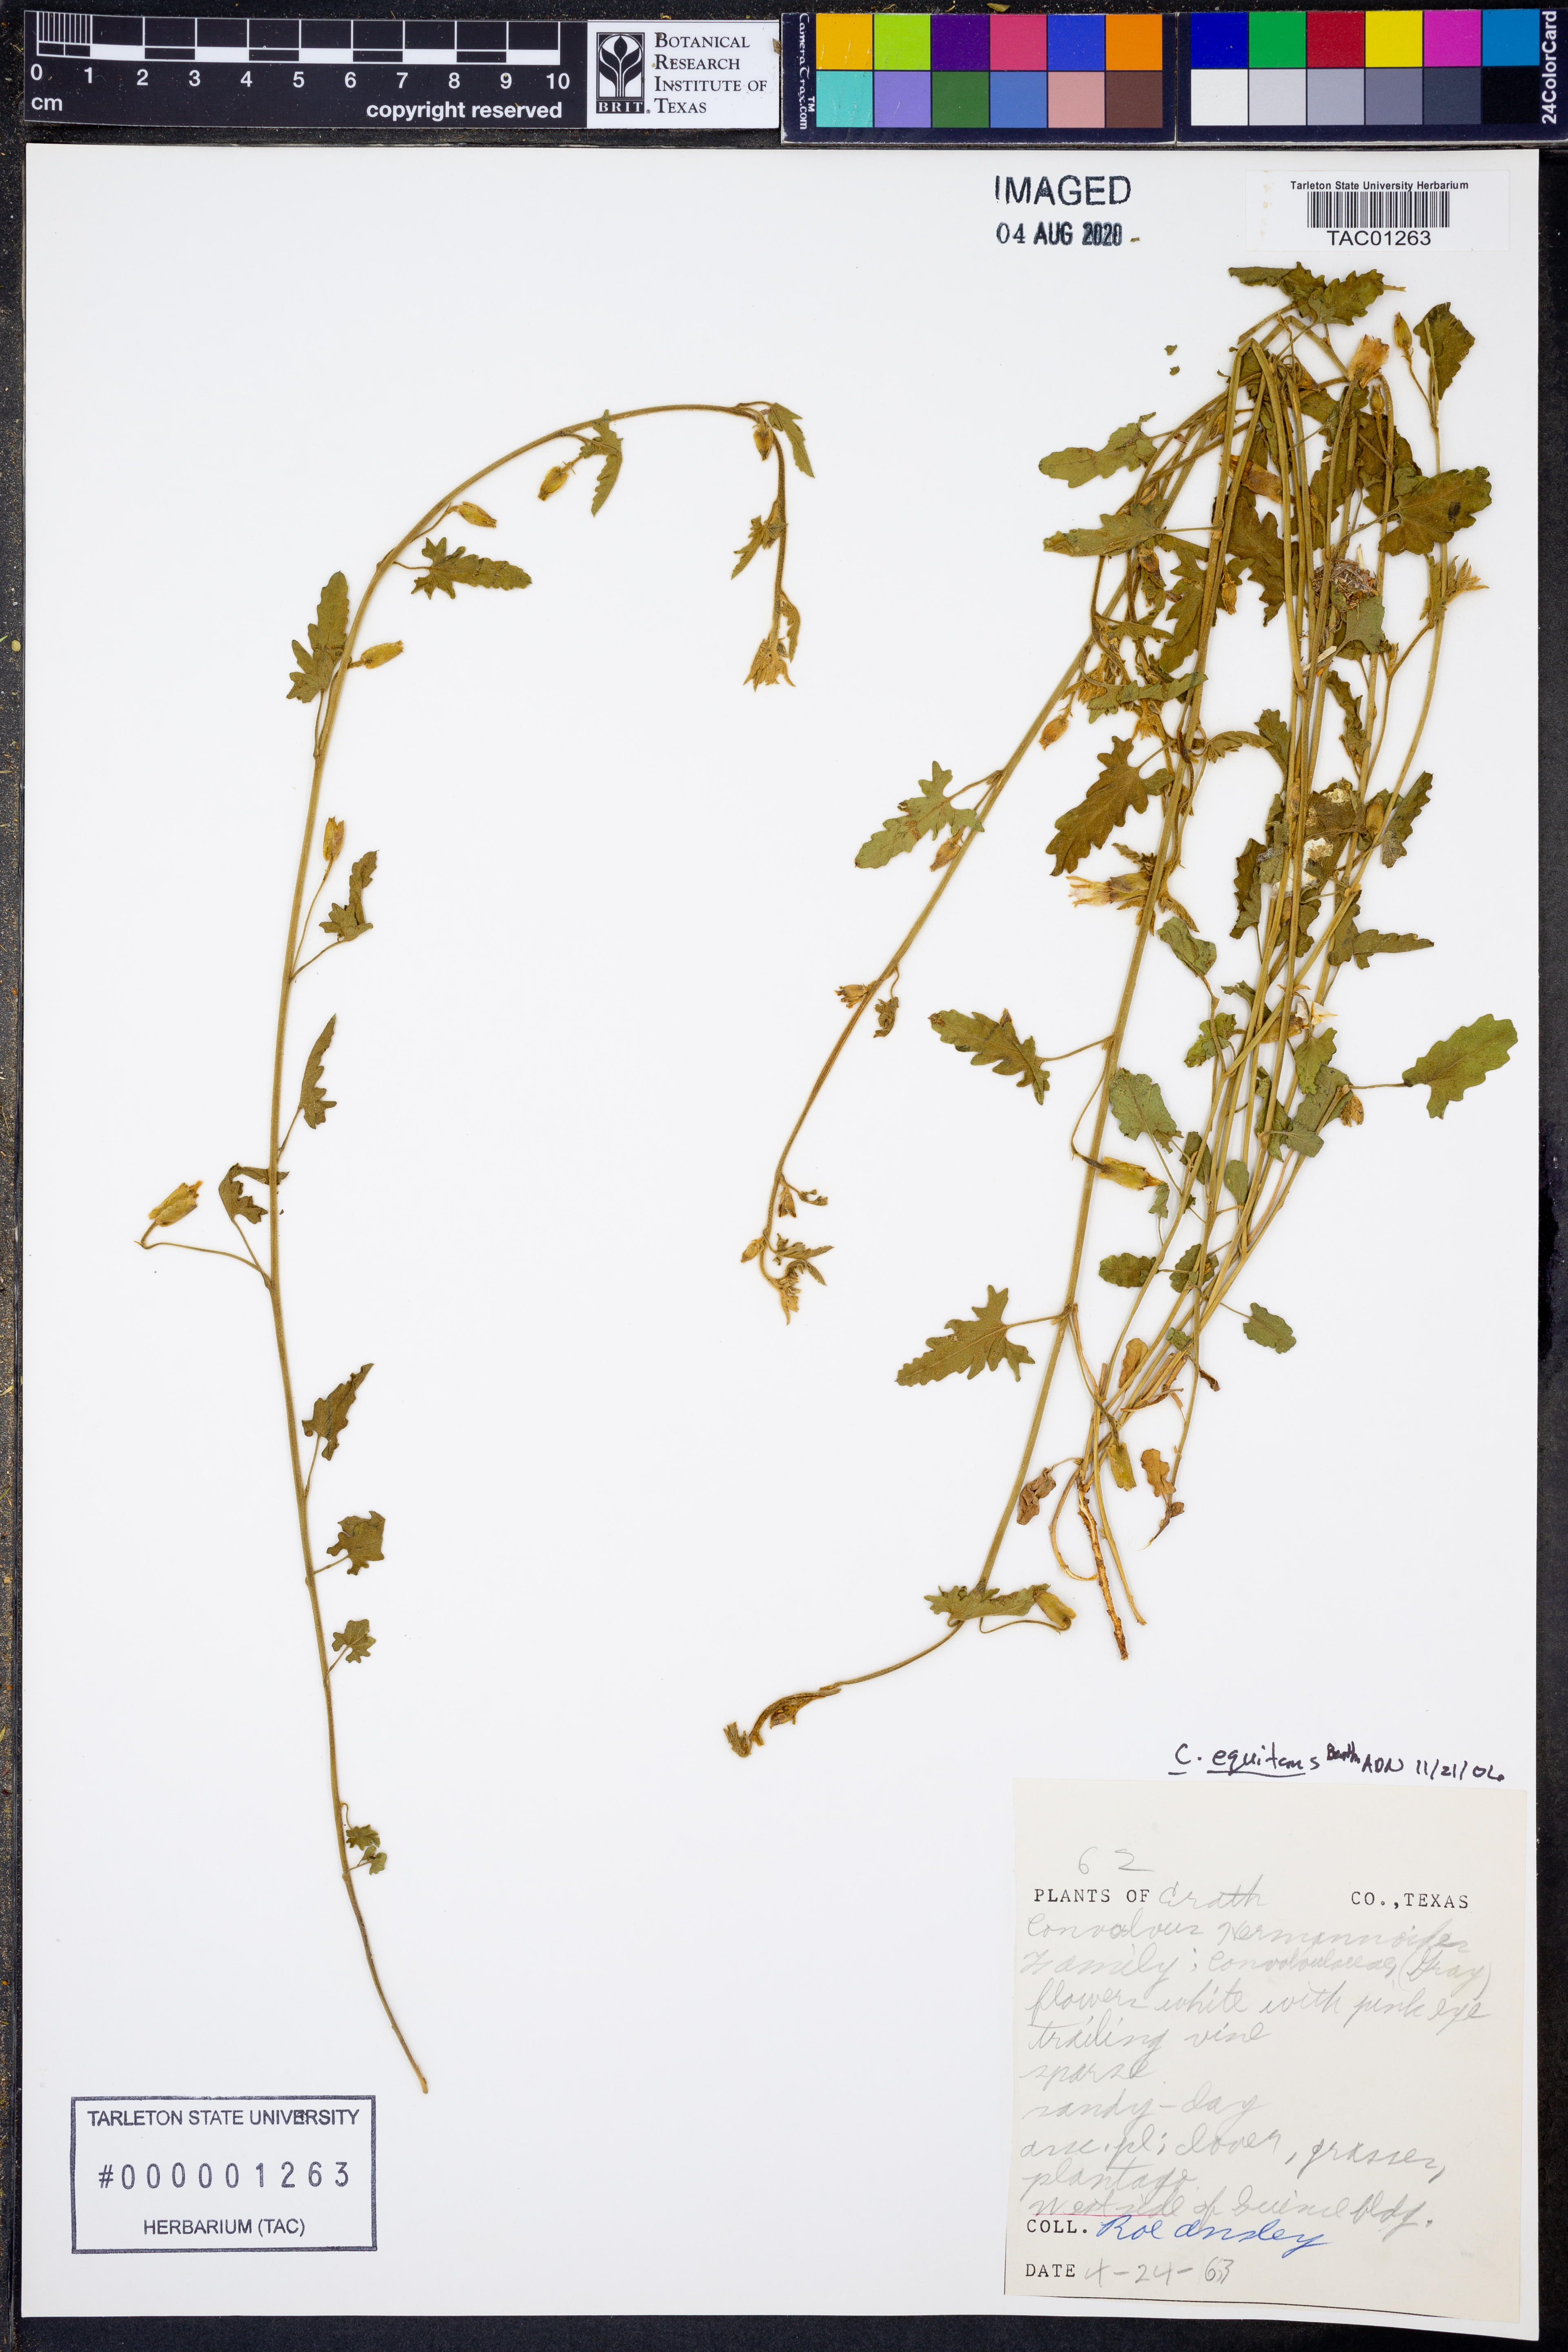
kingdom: Plantae
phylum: Tracheophyta
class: Magnoliopsida
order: Solanales
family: Convolvulaceae
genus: Convolvulus
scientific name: Convolvulus equitans
